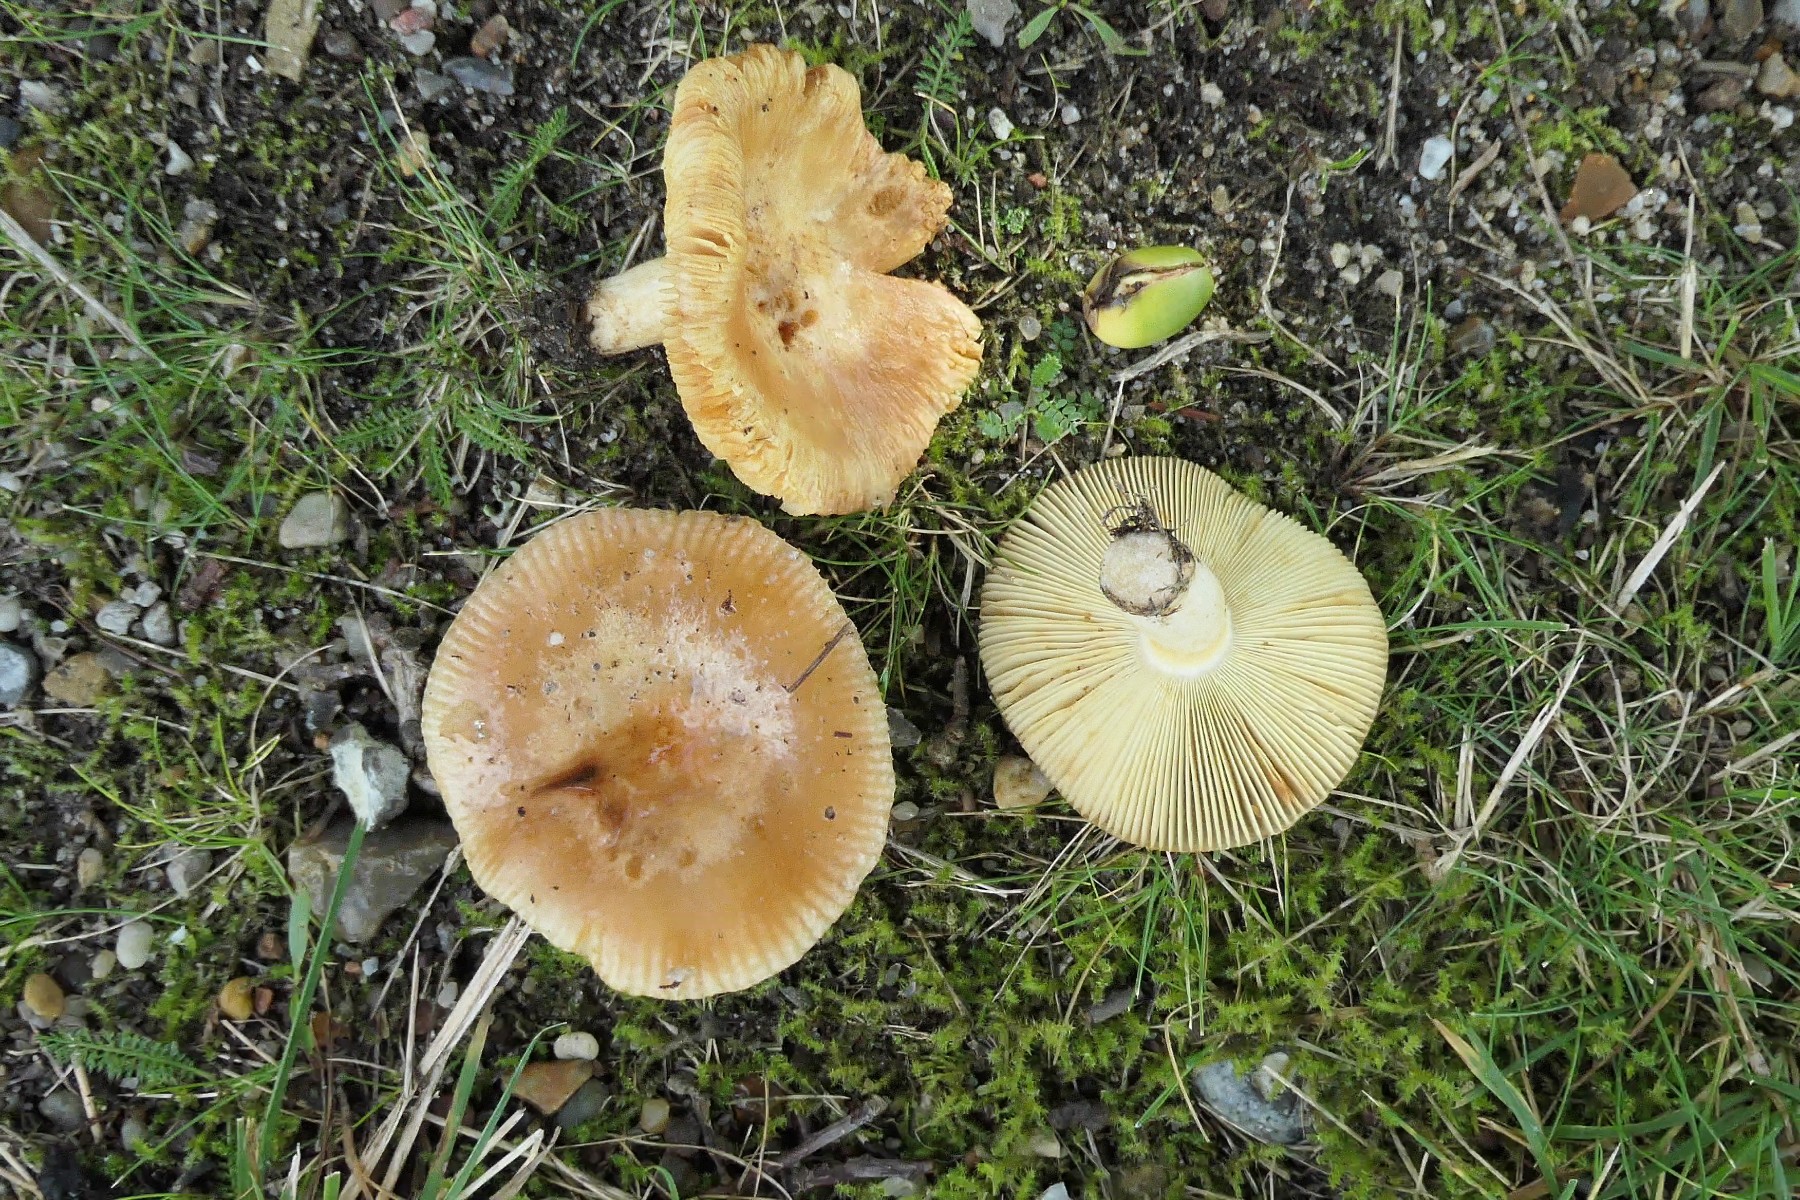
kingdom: Fungi
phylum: Basidiomycota
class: Agaricomycetes
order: Russulales
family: Russulaceae
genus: Russula
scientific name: Russula recondita
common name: mild kam-skørhat
